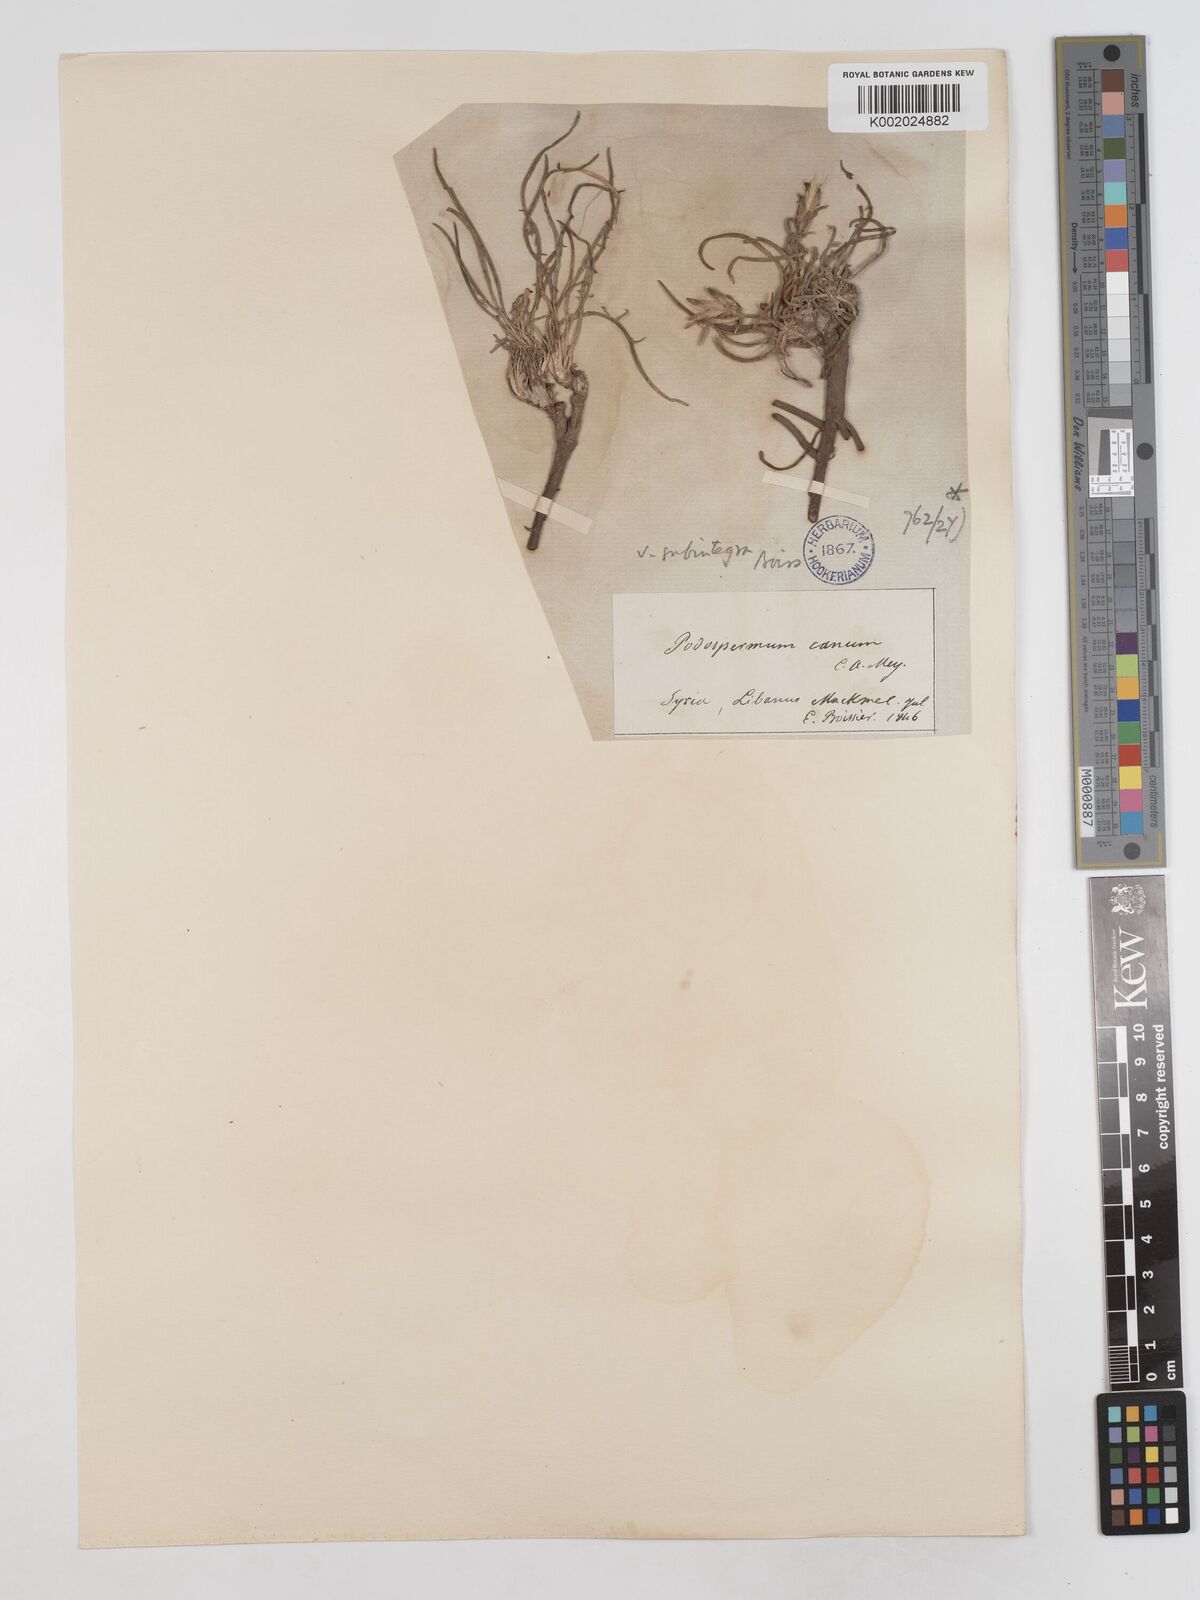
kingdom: Plantae
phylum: Tracheophyta
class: Magnoliopsida
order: Asterales
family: Asteraceae
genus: Scorzonera
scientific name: Scorzonera cana
